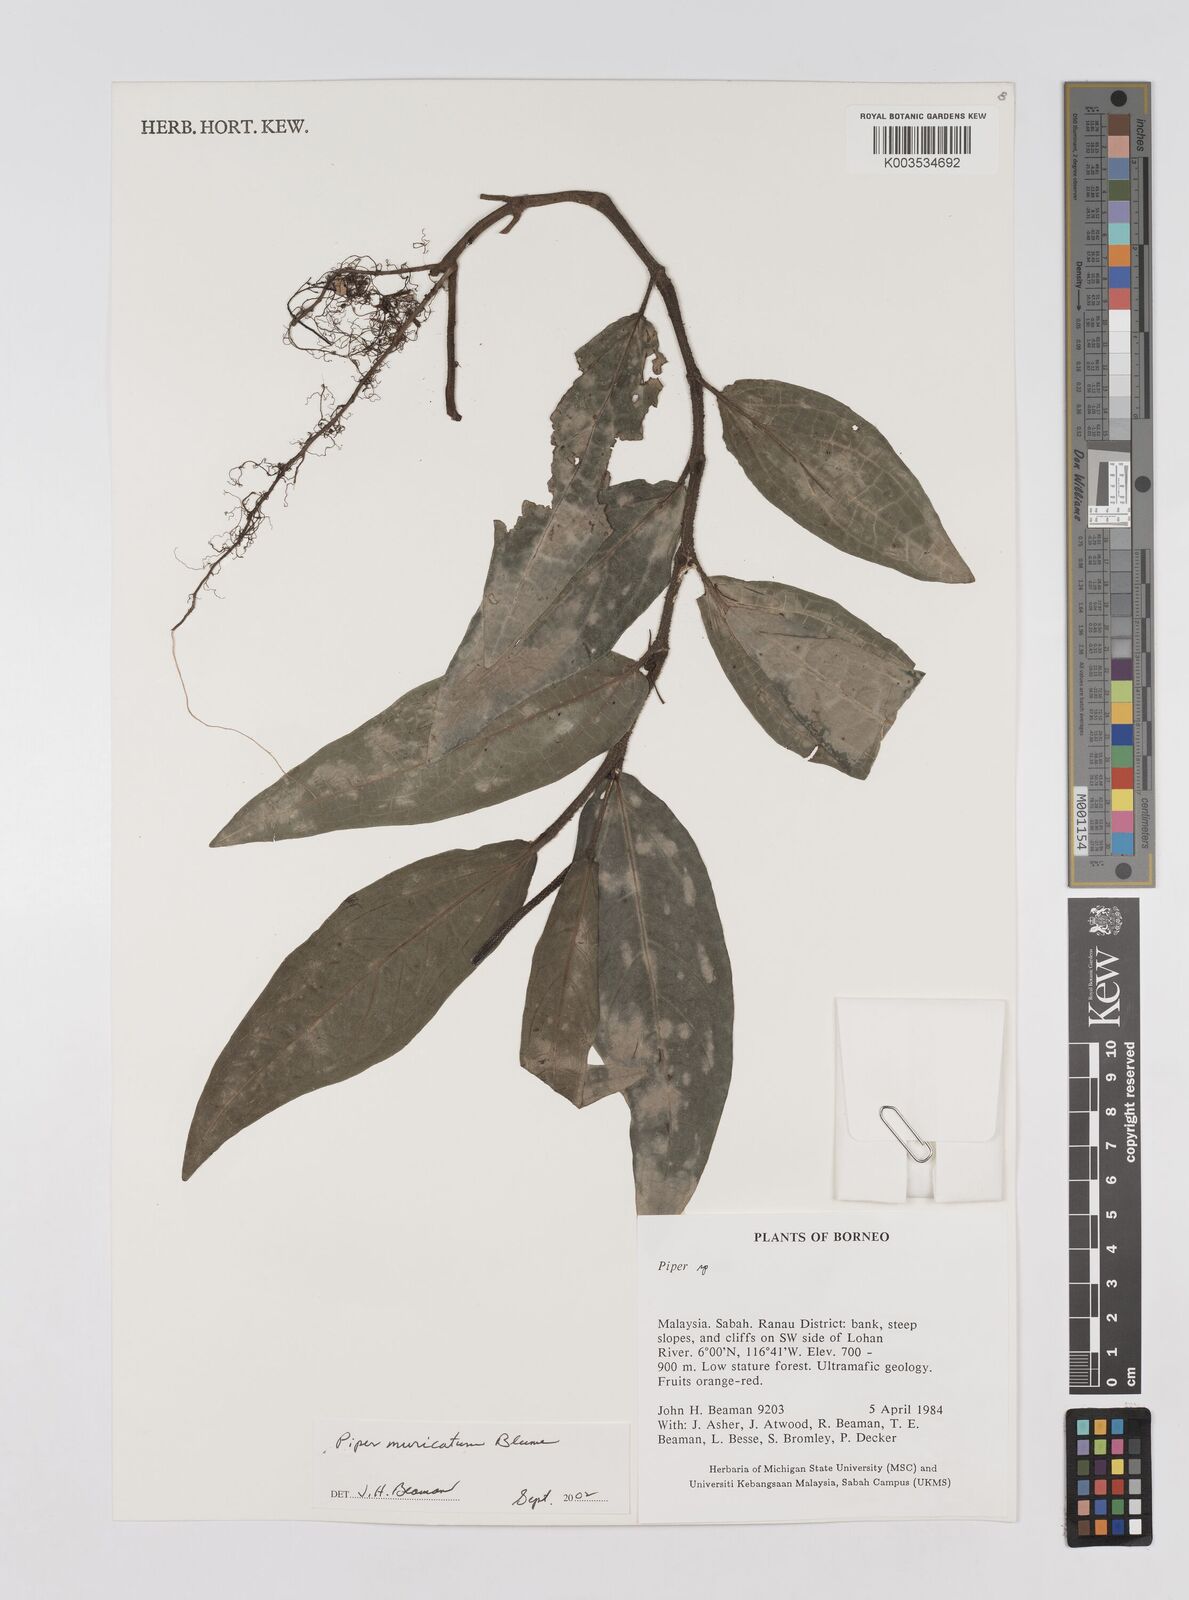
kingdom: Plantae
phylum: Tracheophyta
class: Magnoliopsida
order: Piperales
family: Piperaceae
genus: Piper
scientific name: Piper muricatum
